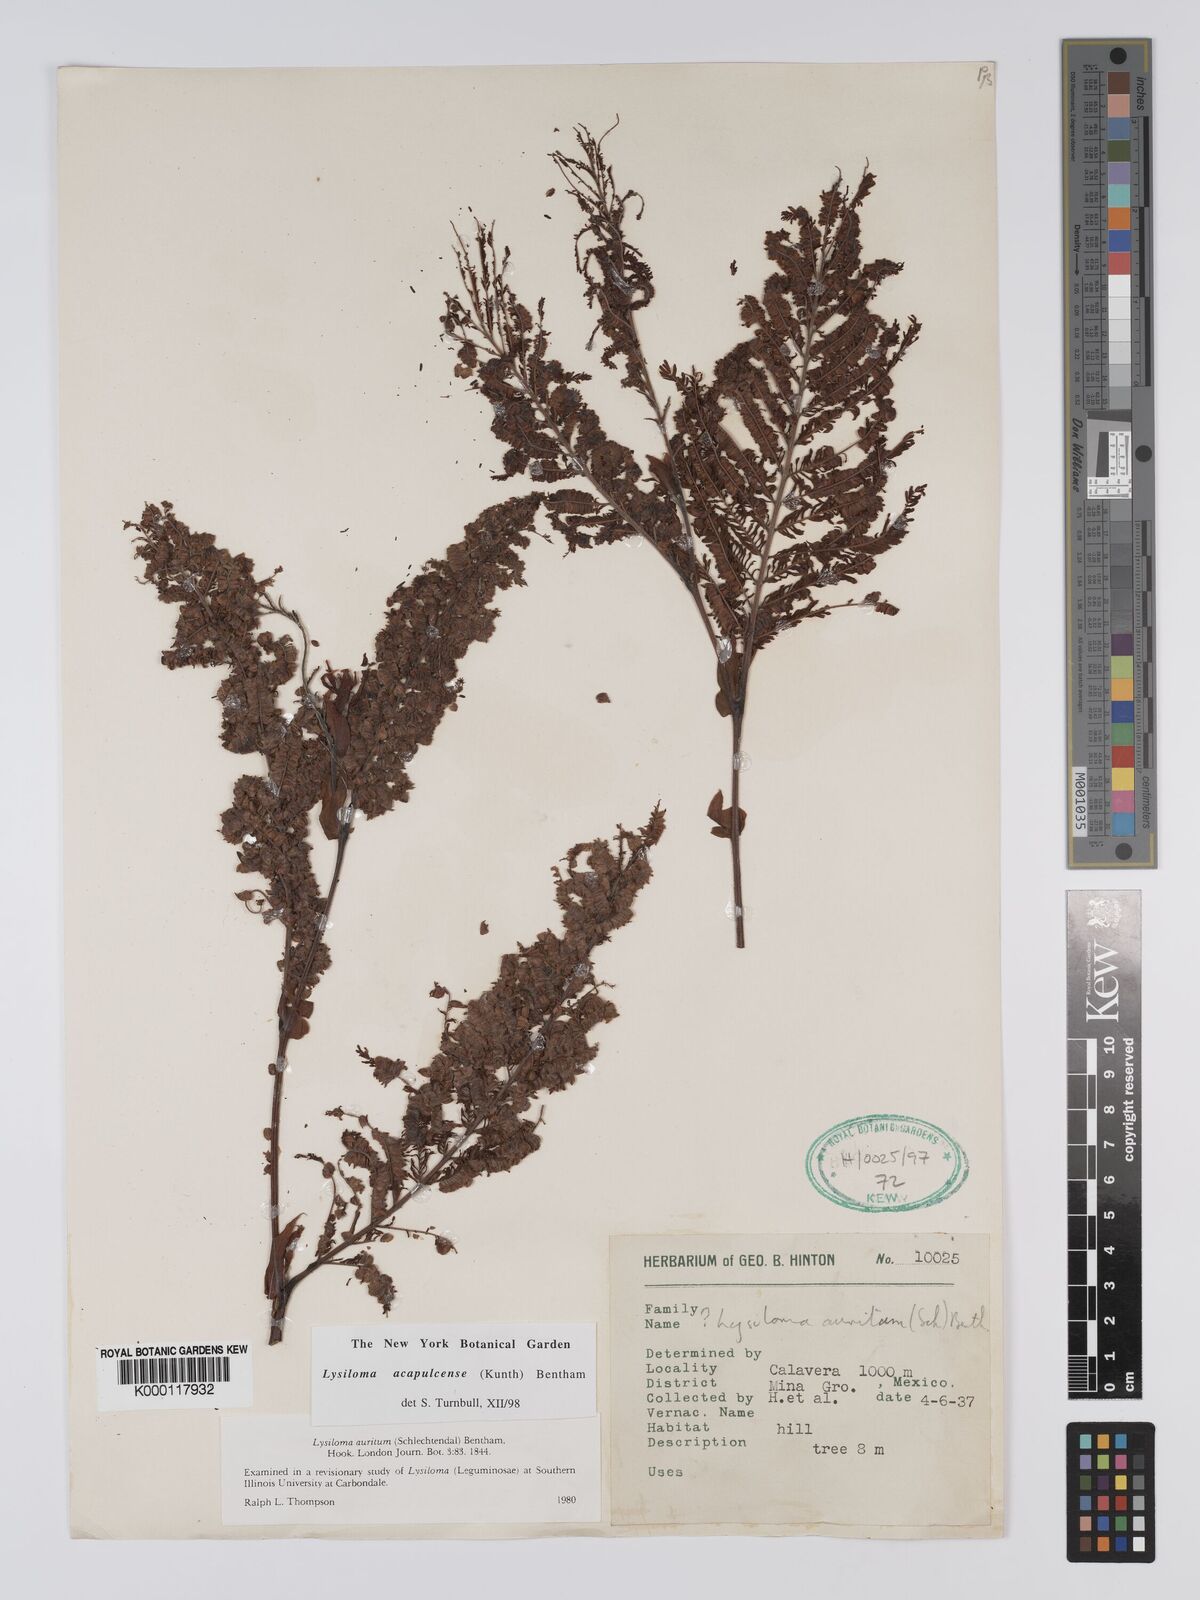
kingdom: Plantae
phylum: Tracheophyta
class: Magnoliopsida
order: Fabales
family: Fabaceae
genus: Lysiloma
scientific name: Lysiloma acapulcense
